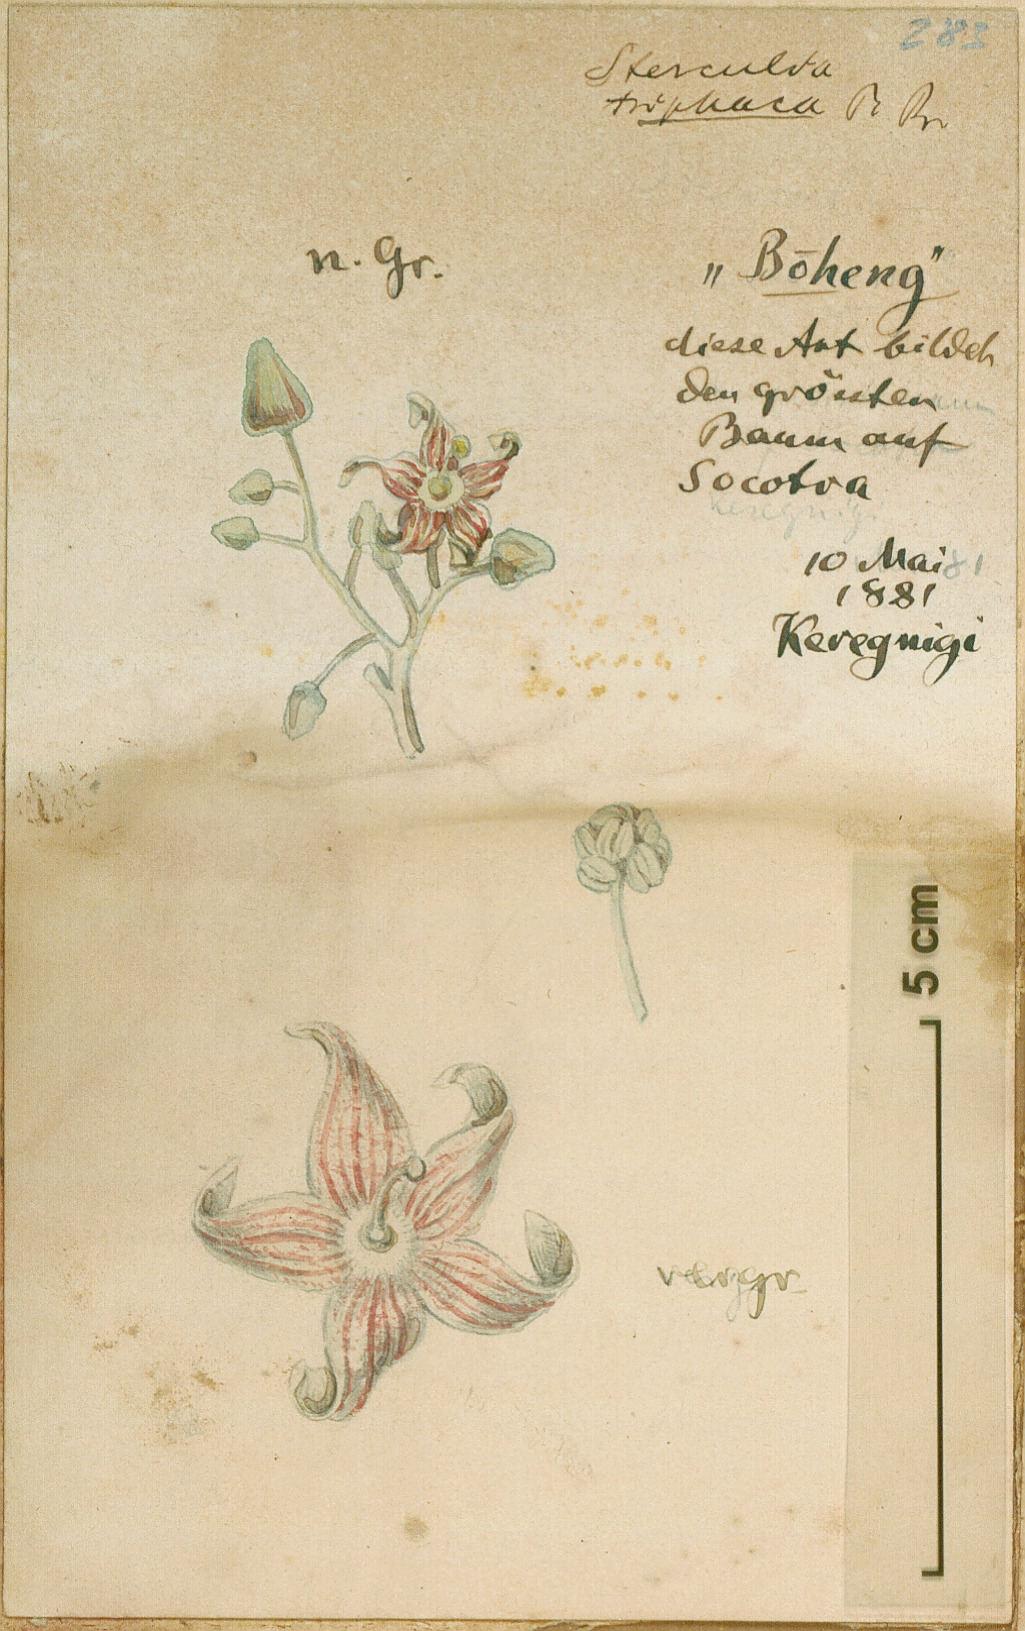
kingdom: Plantae
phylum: Tracheophyta
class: Magnoliopsida
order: Malvales
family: Malvaceae
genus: Sterculia
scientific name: Sterculia africana
